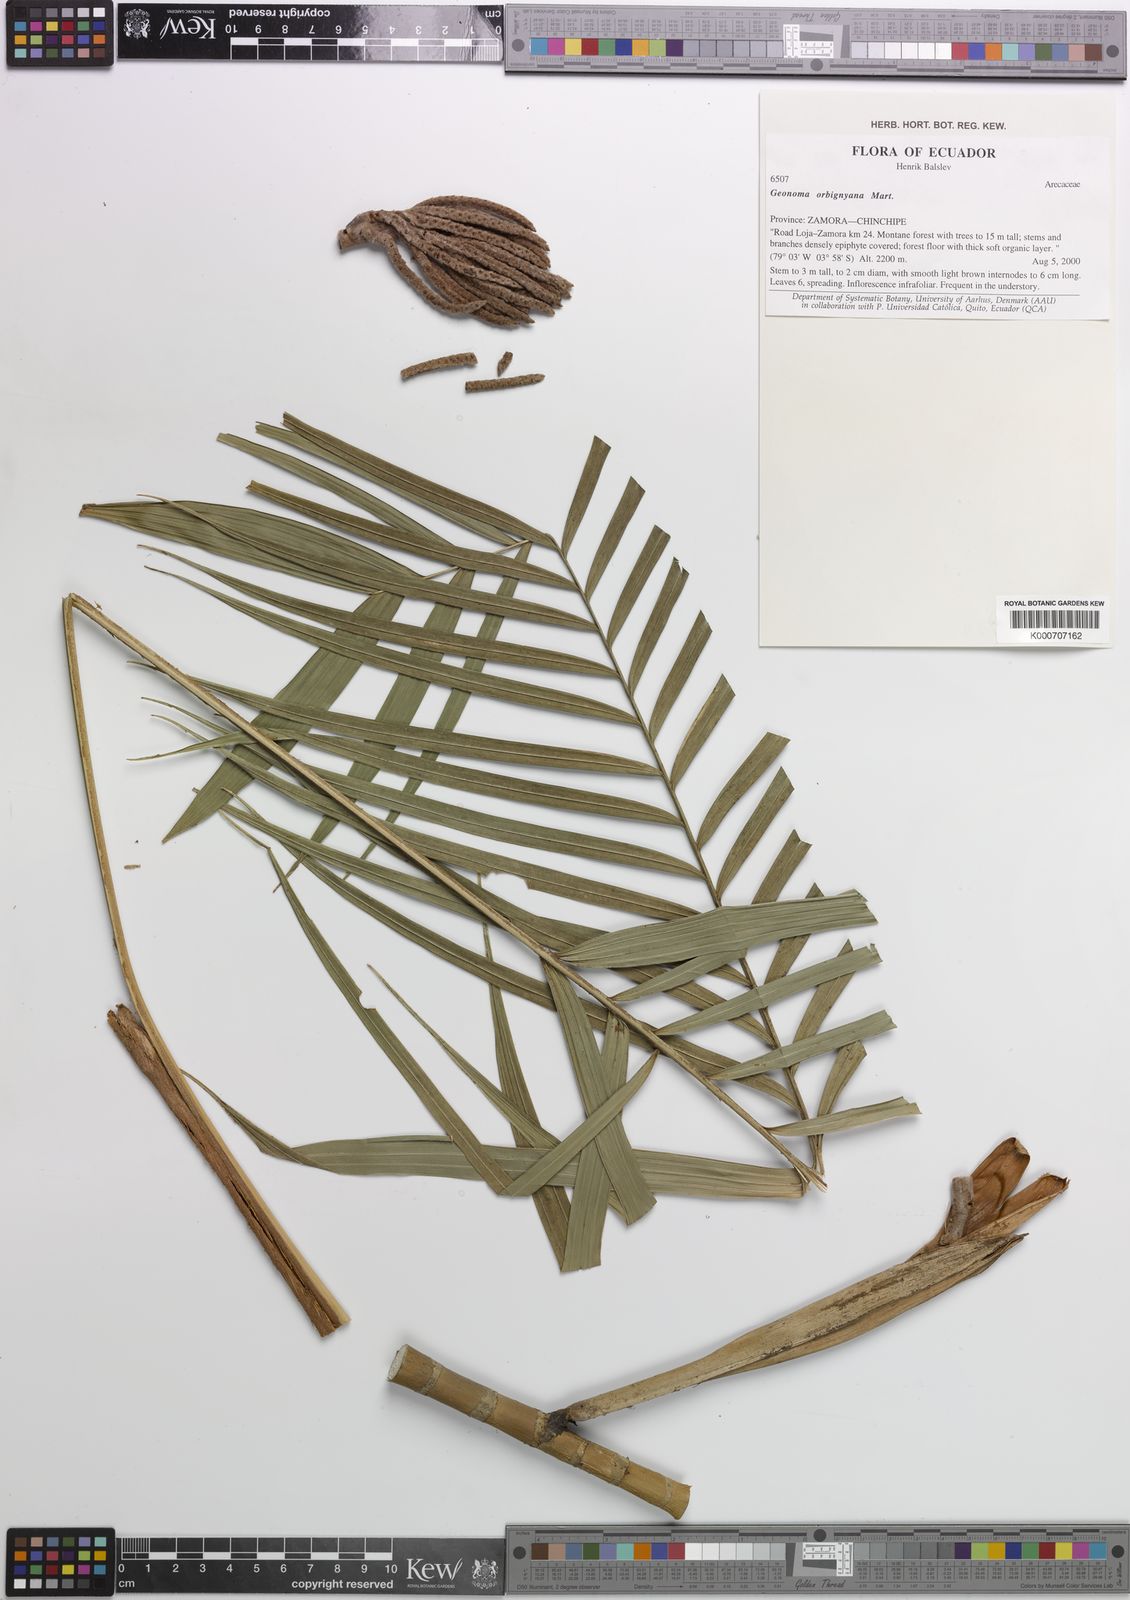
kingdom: Plantae
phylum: Tracheophyta
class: Liliopsida
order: Arecales
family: Arecaceae
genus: Geonoma
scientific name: Geonoma orbignyana
